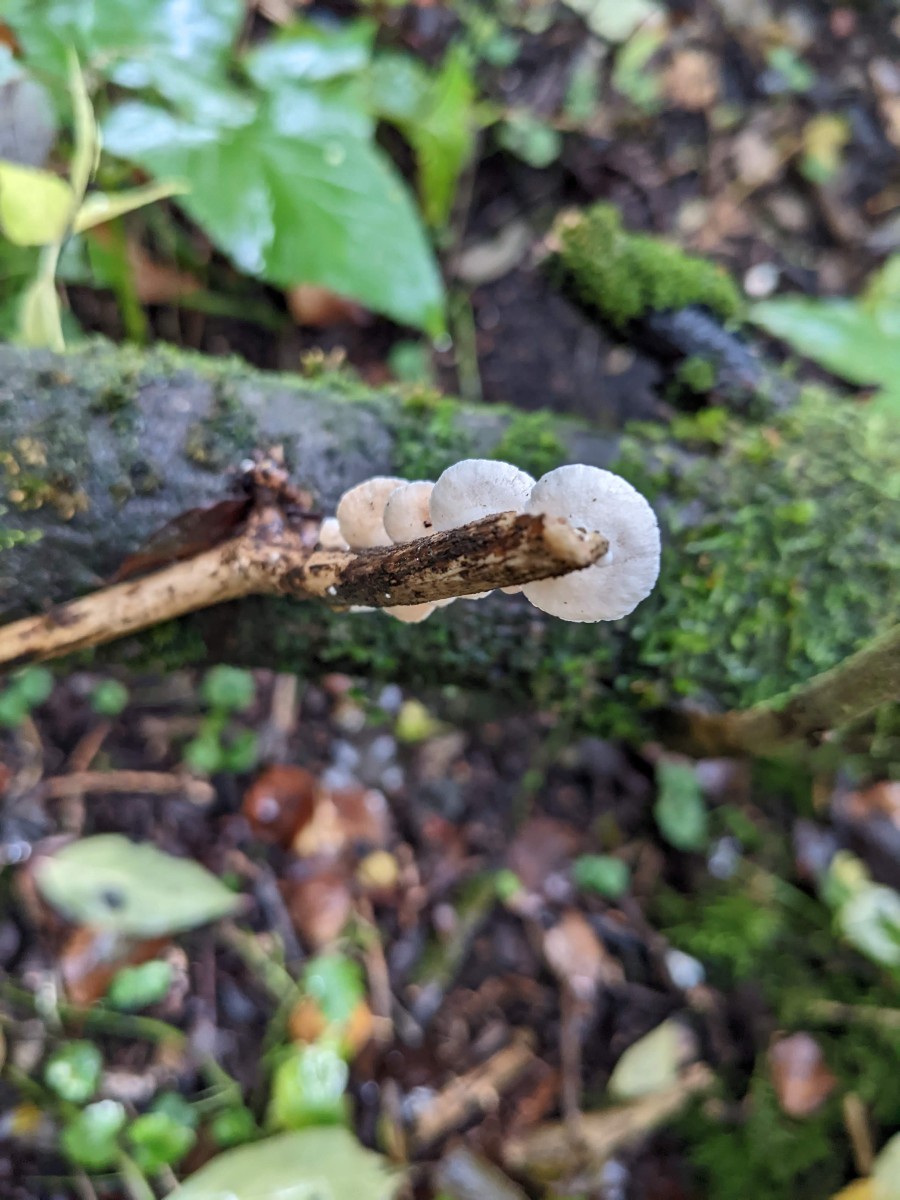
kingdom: Fungi
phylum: Basidiomycota
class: Agaricomycetes
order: Agaricales
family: Crepidotaceae
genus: Crepidotus
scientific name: Crepidotus cesatii
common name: almindelig muslingesvamp
